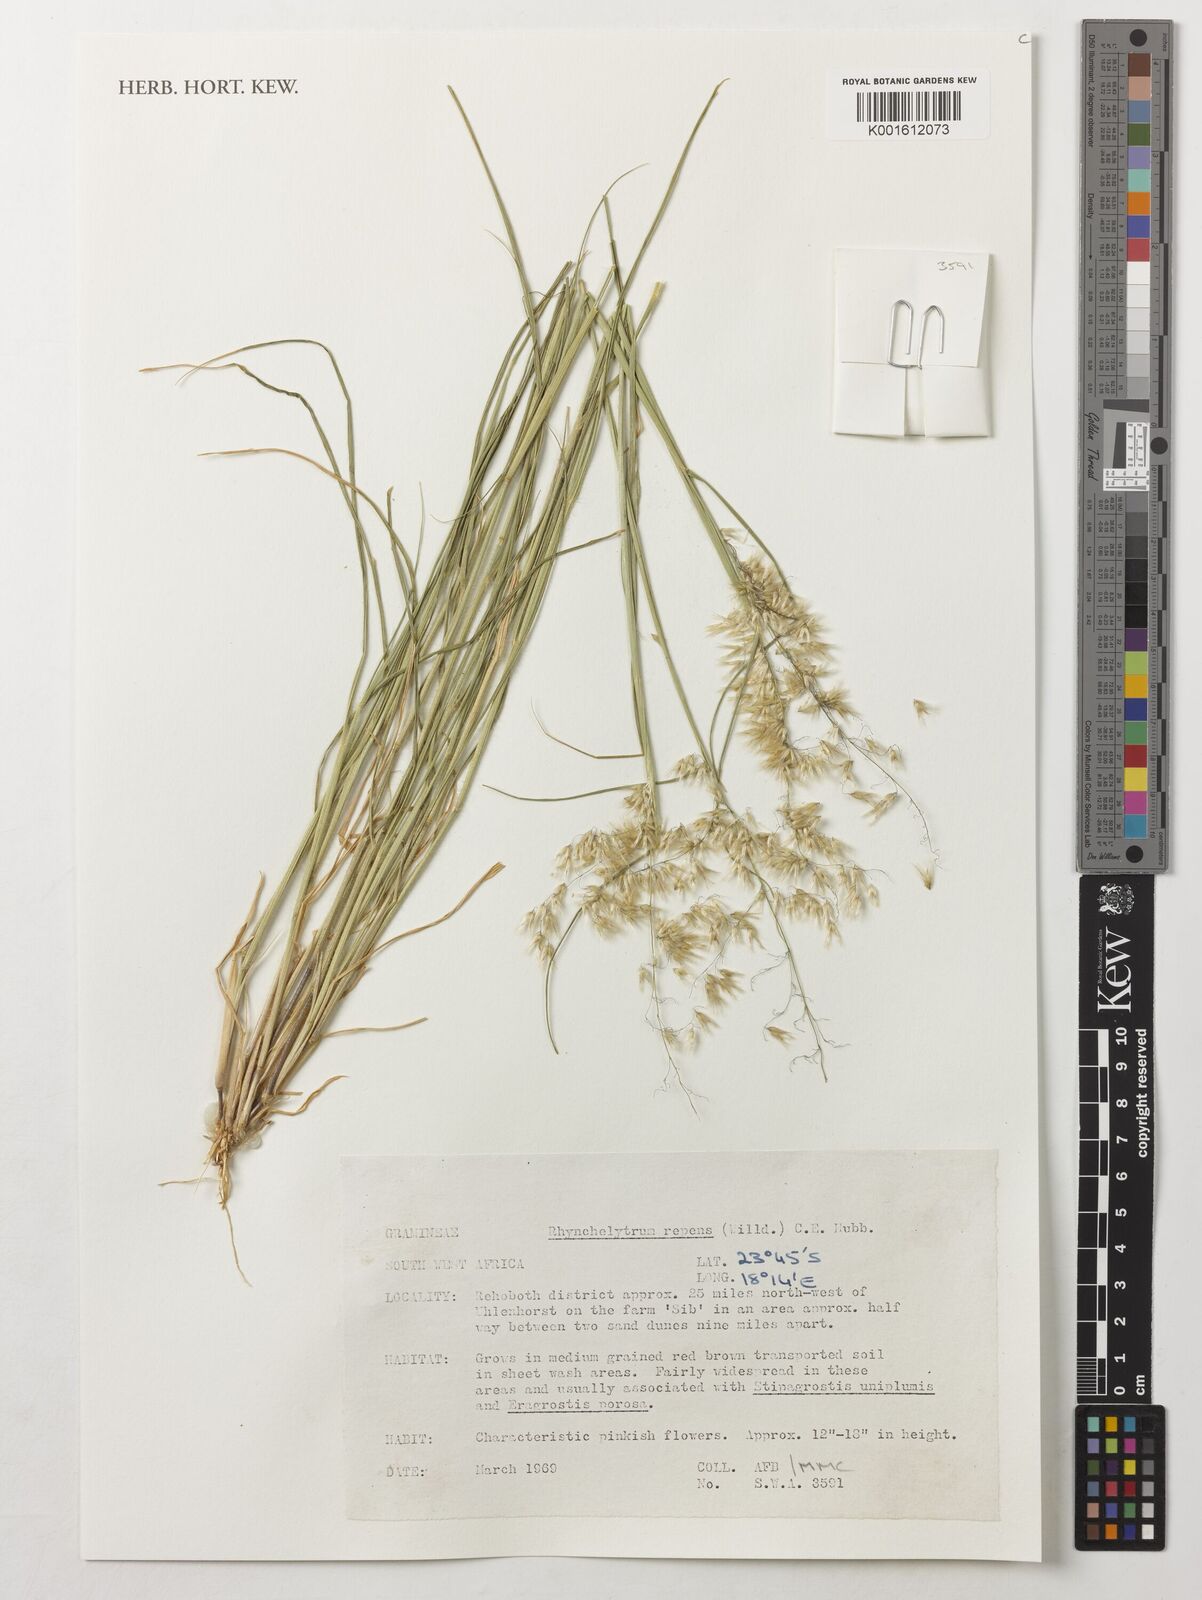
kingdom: Plantae
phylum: Tracheophyta
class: Liliopsida
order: Poales
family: Poaceae
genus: Melinis
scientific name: Melinis repens
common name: Rose natal grass
